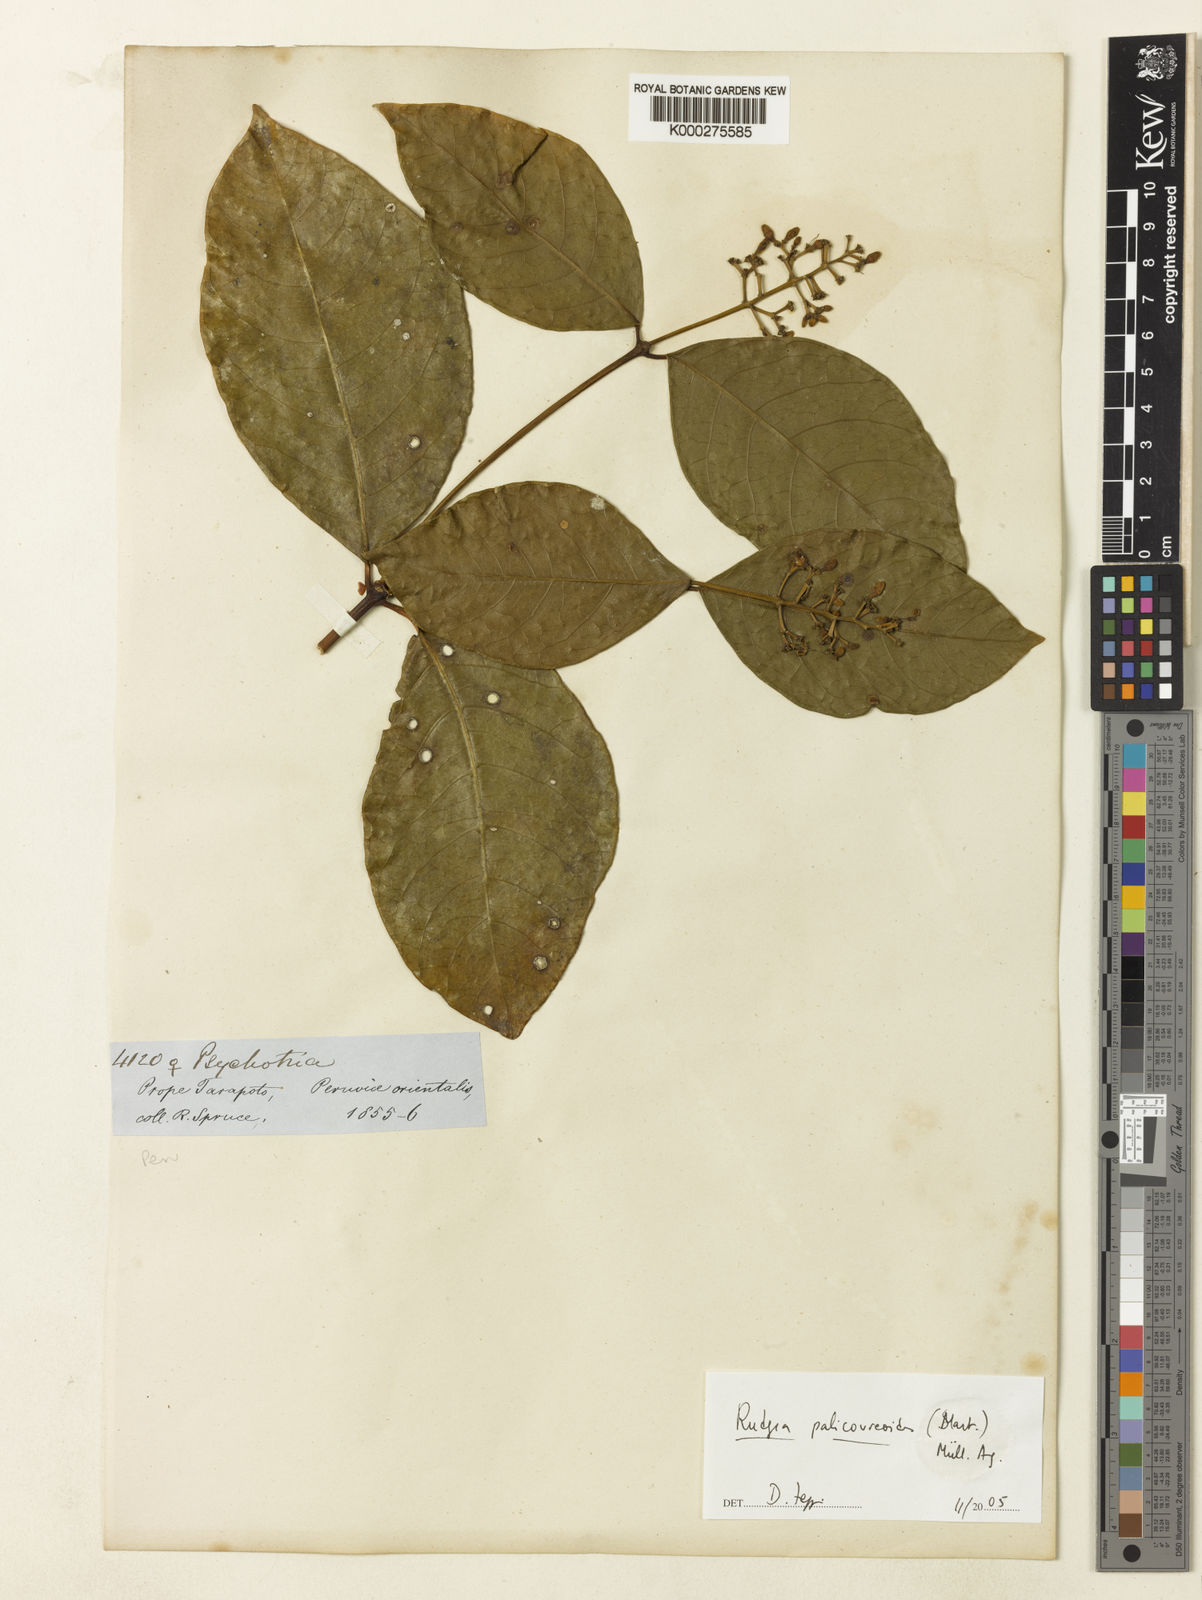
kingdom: Plantae
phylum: Tracheophyta
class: Magnoliopsida
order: Gentianales
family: Rubiaceae
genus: Rudgea
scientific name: Rudgea
